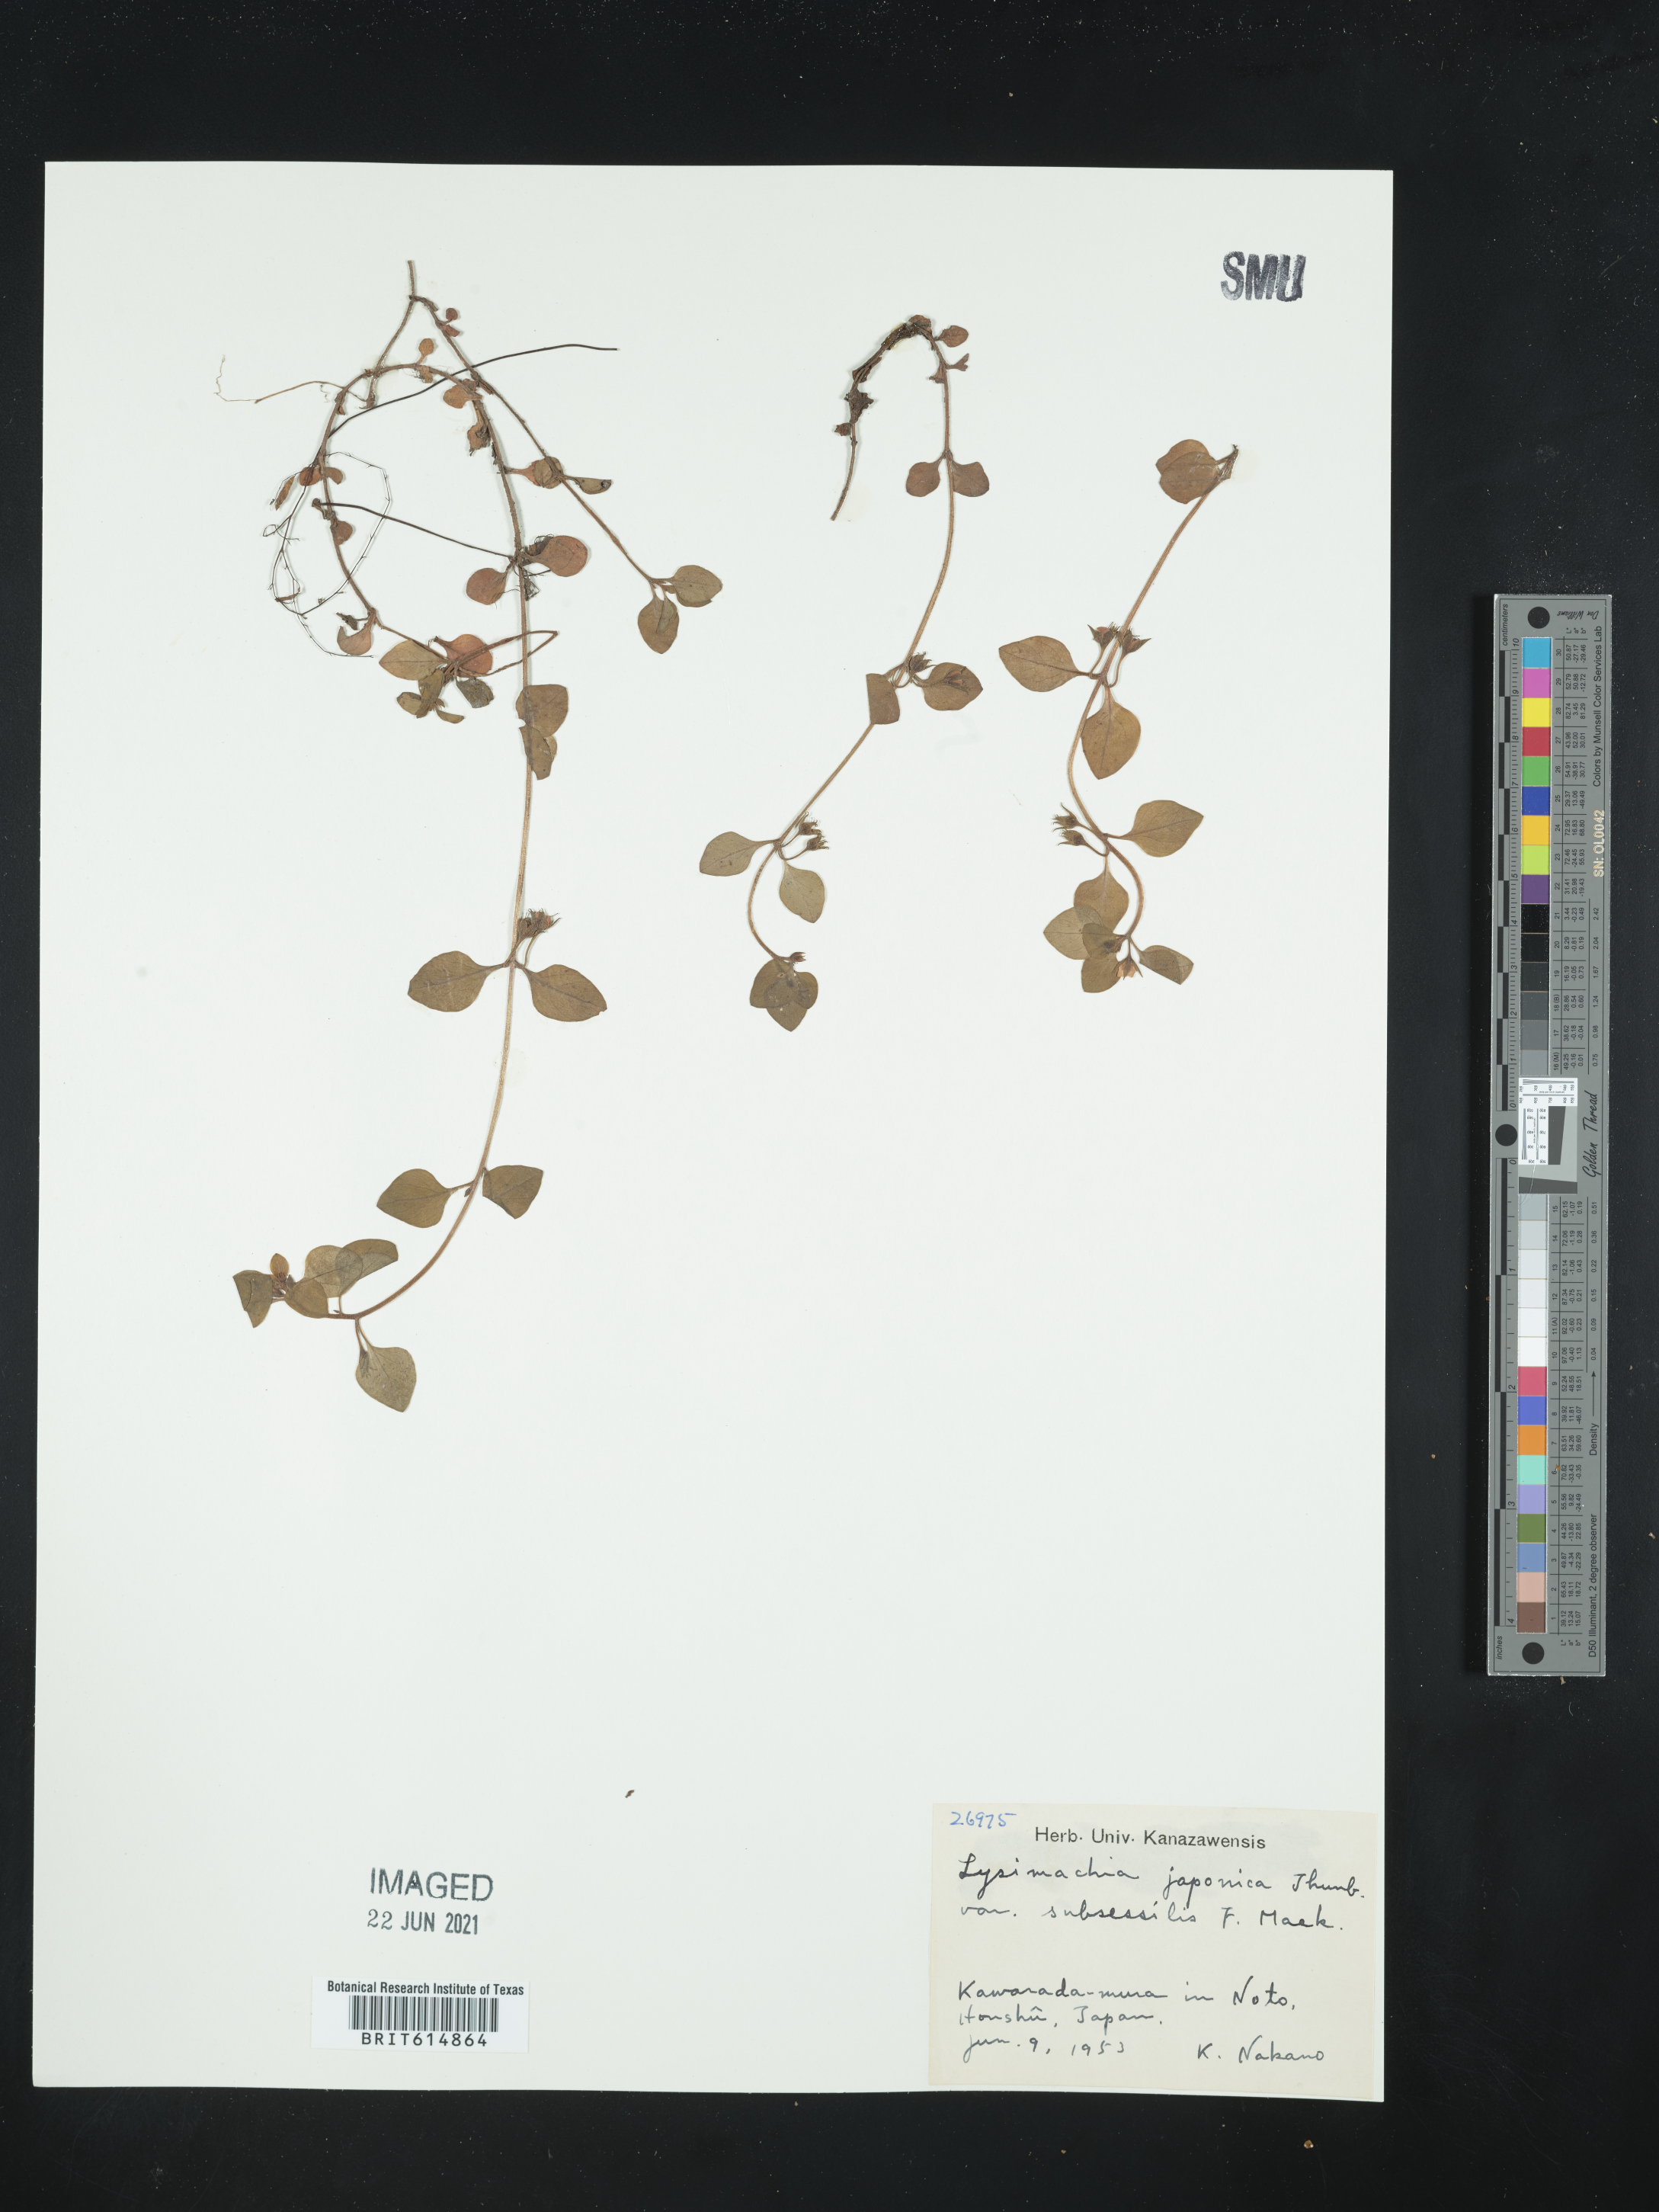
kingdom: Plantae
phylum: Tracheophyta
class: Magnoliopsida
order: Ericales
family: Primulaceae
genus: Lysimachia
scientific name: Lysimachia japonica
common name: Japanese yellow loosestrife
